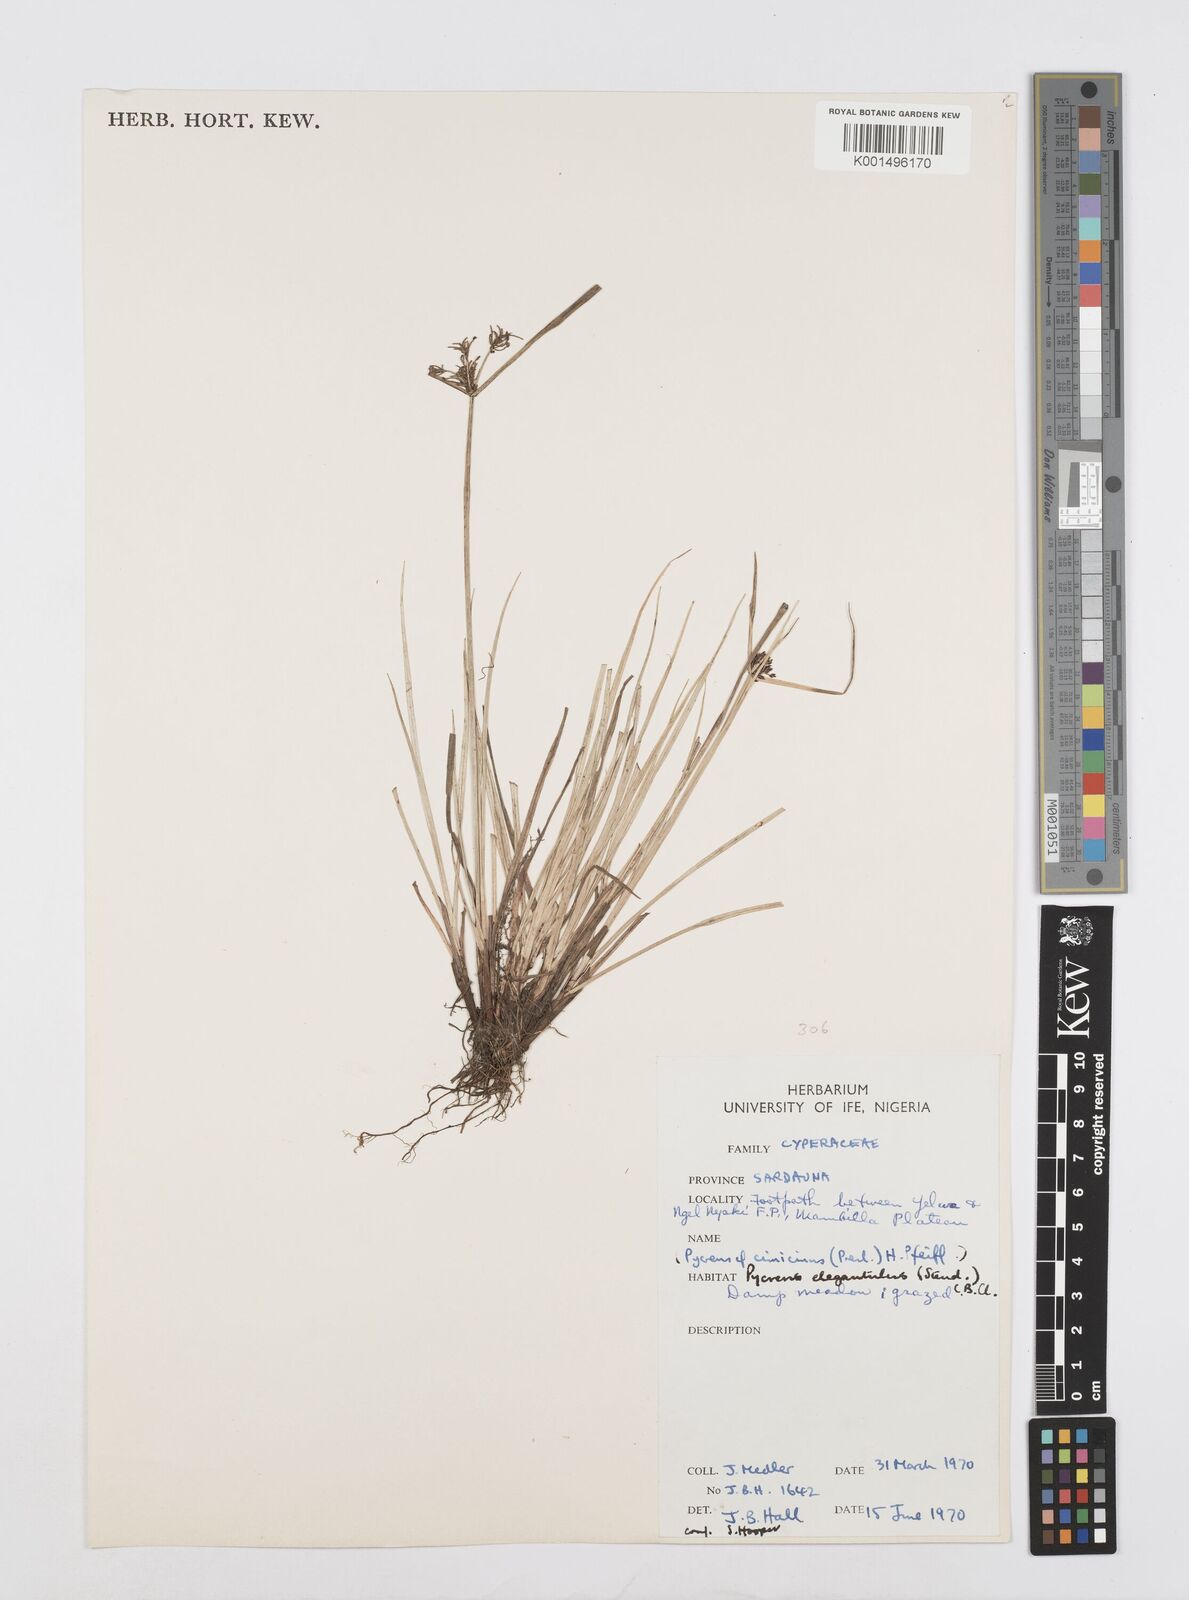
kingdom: Plantae
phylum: Tracheophyta
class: Liliopsida
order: Poales
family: Cyperaceae
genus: Cyperus
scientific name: Cyperus elegantulus
